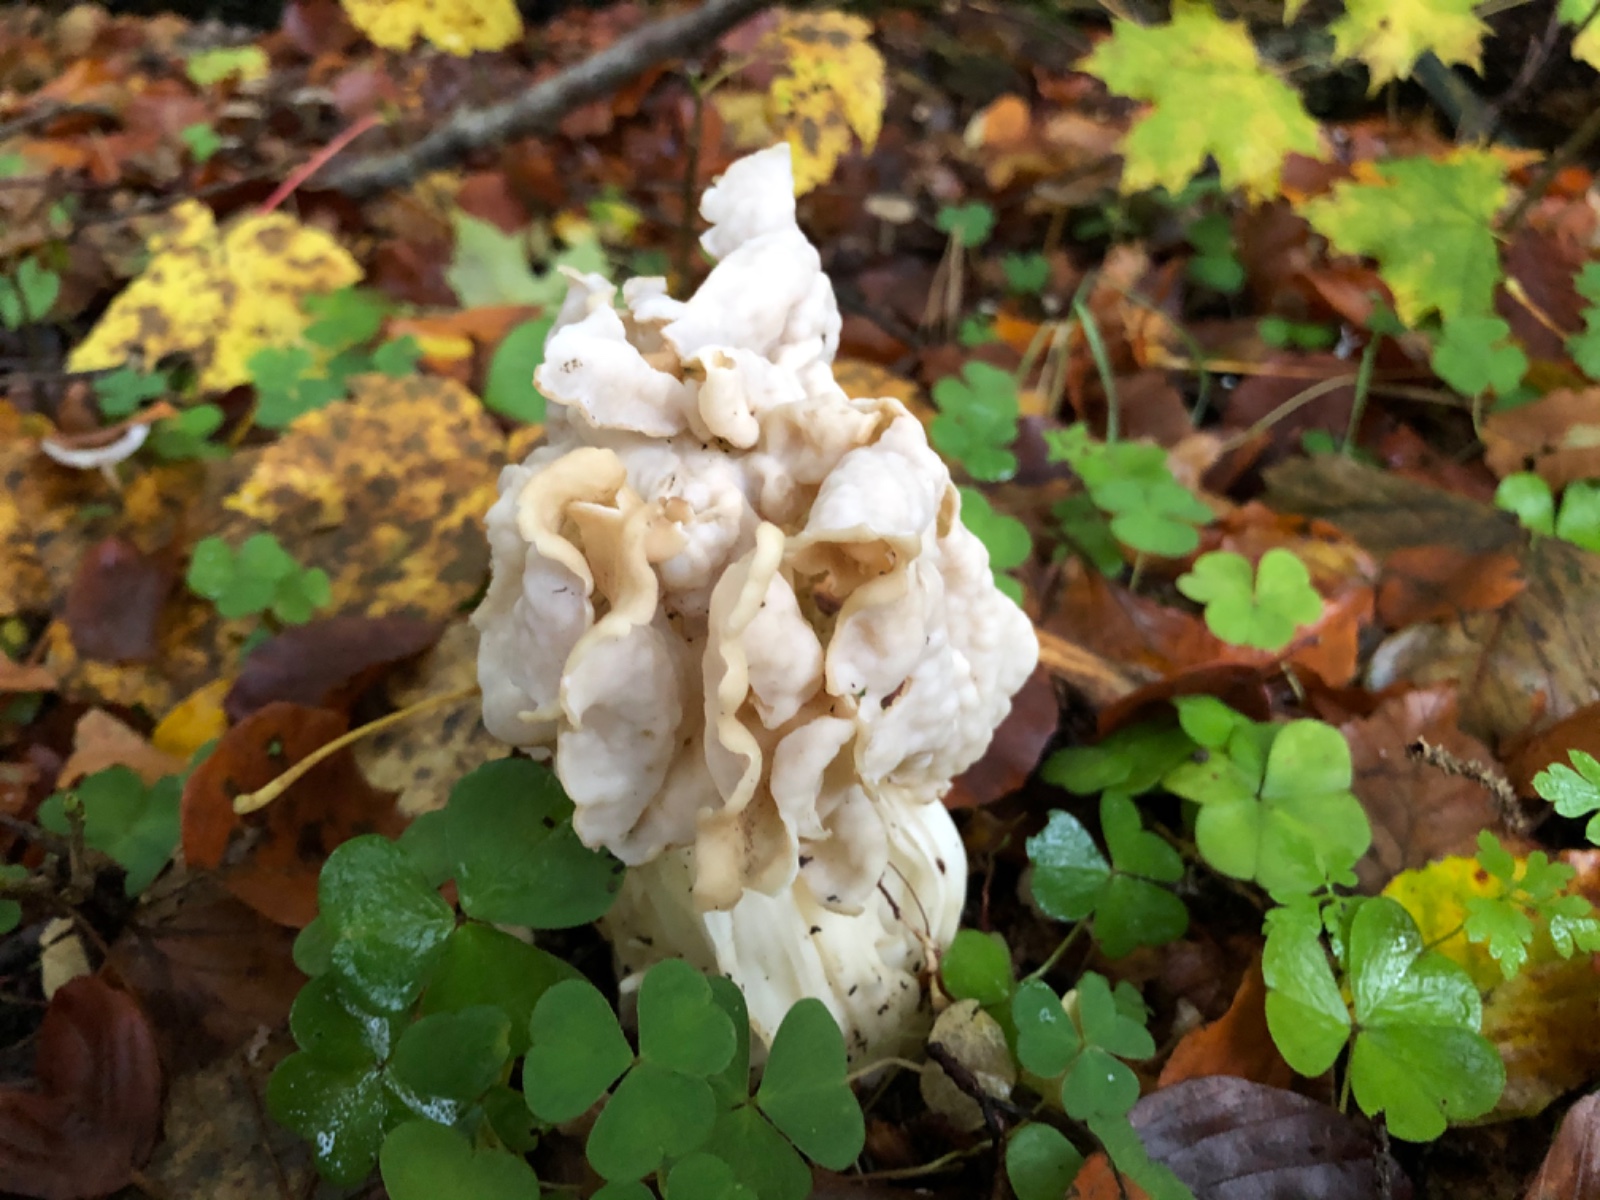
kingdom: Fungi
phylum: Ascomycota
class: Pezizomycetes
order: Pezizales
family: Helvellaceae
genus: Helvella
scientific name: Helvella crispa
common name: kruset foldhat
